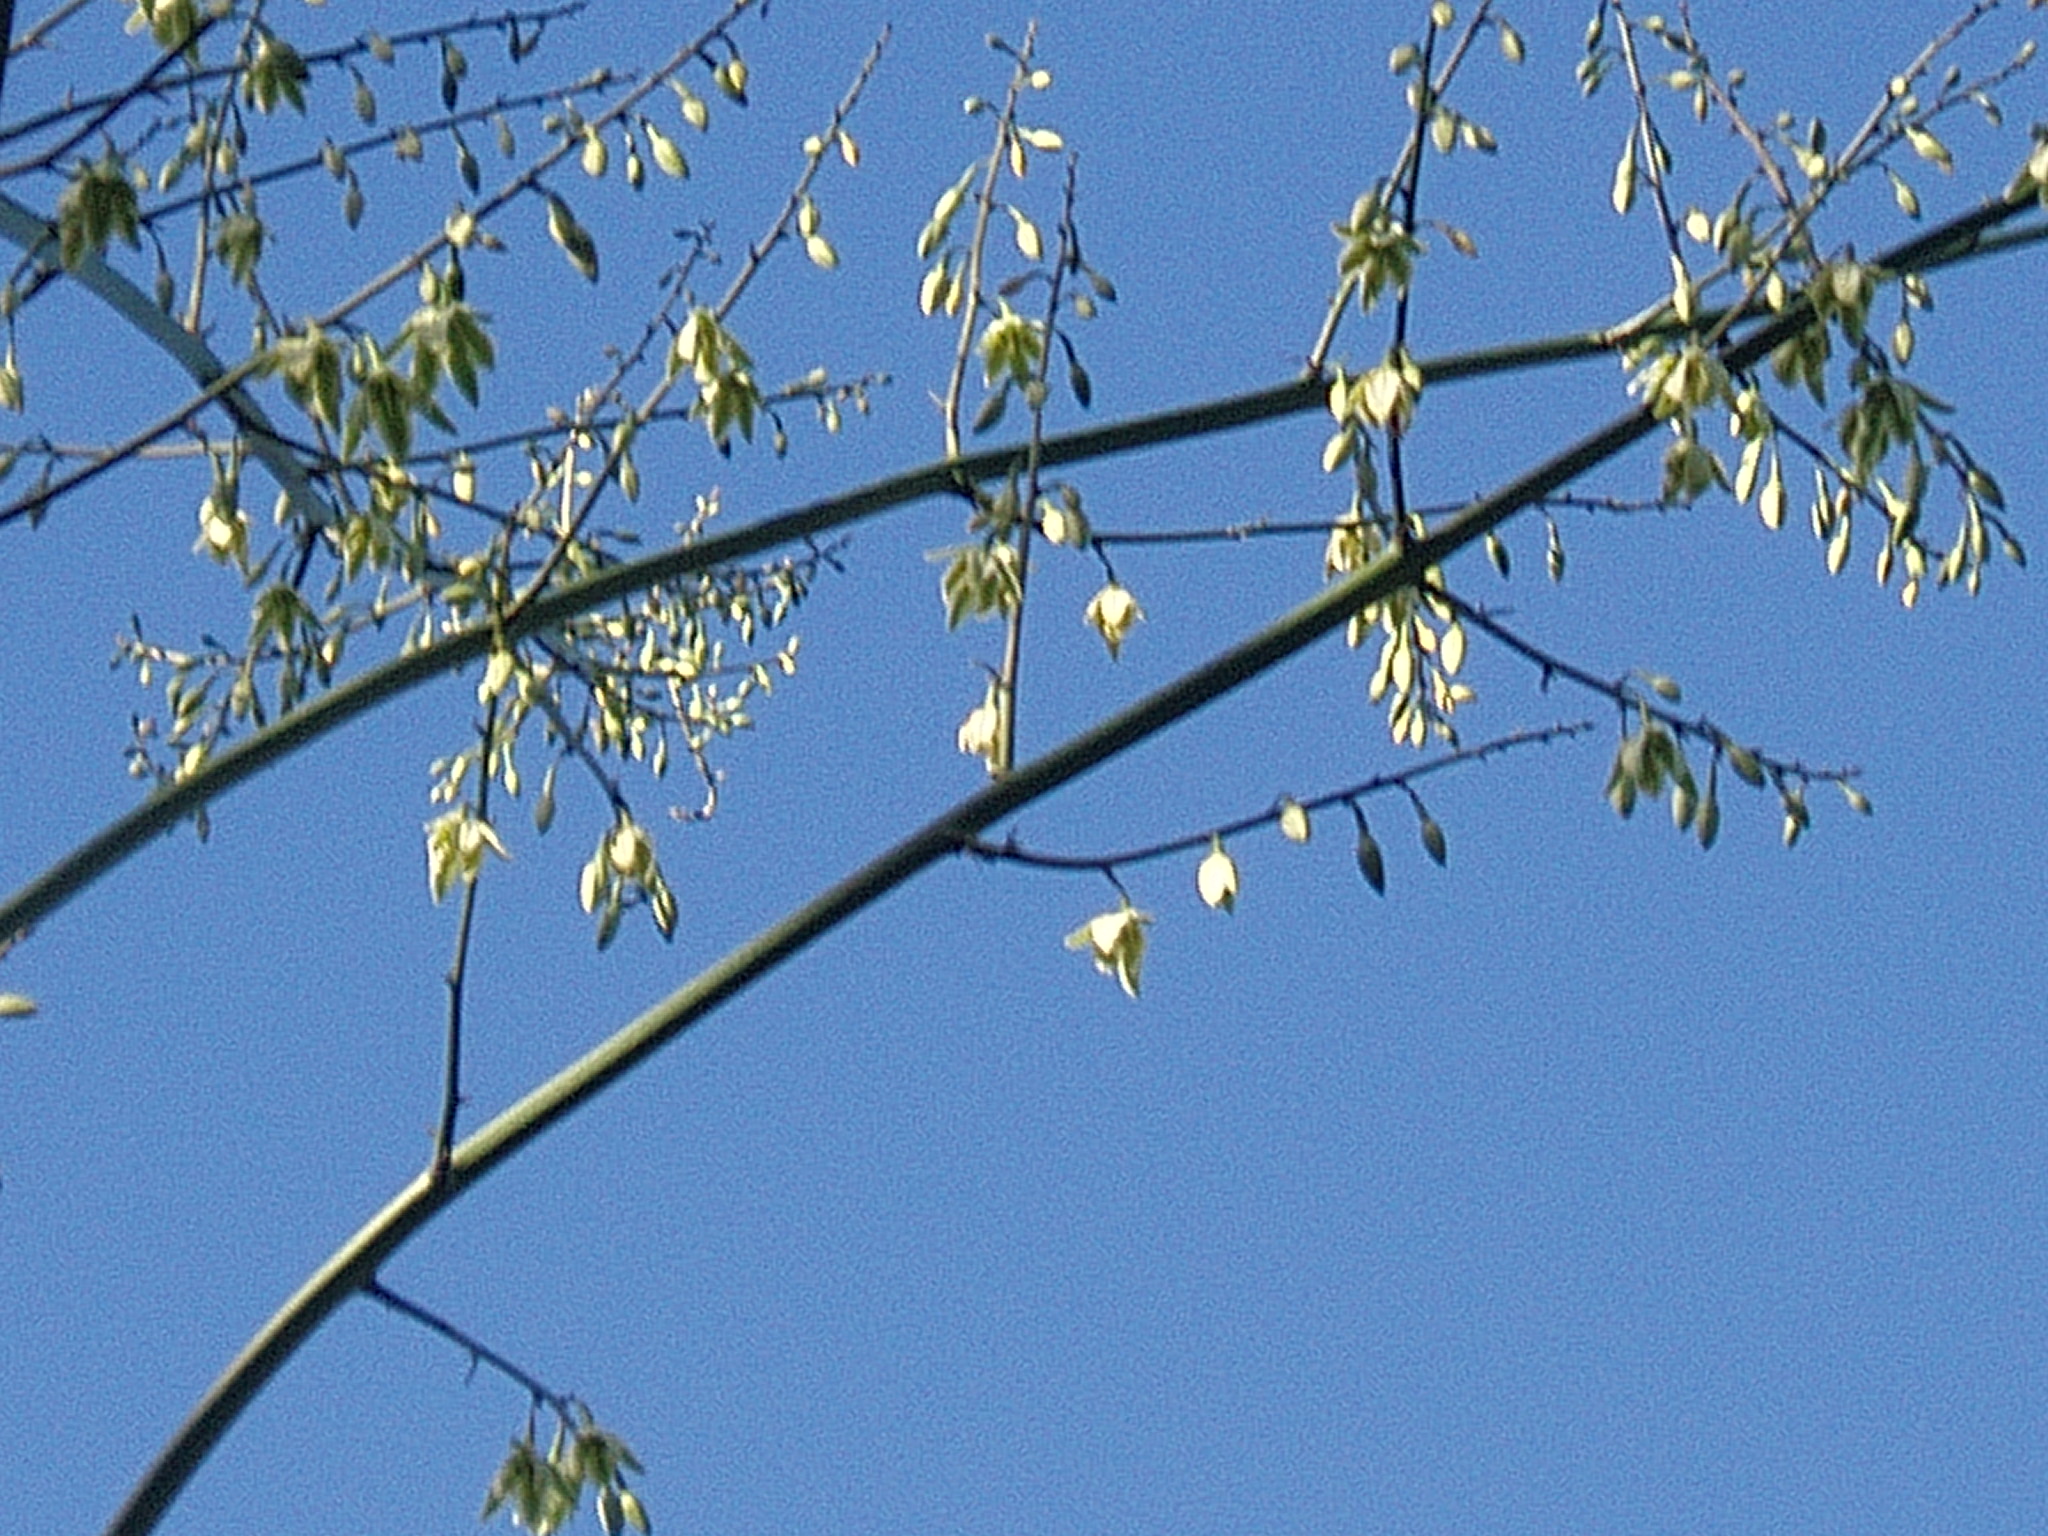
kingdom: Plantae
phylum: Tracheophyta
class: Liliopsida
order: Asparagales
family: Asparagaceae
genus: Furcraea
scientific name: Furcraea selloa
